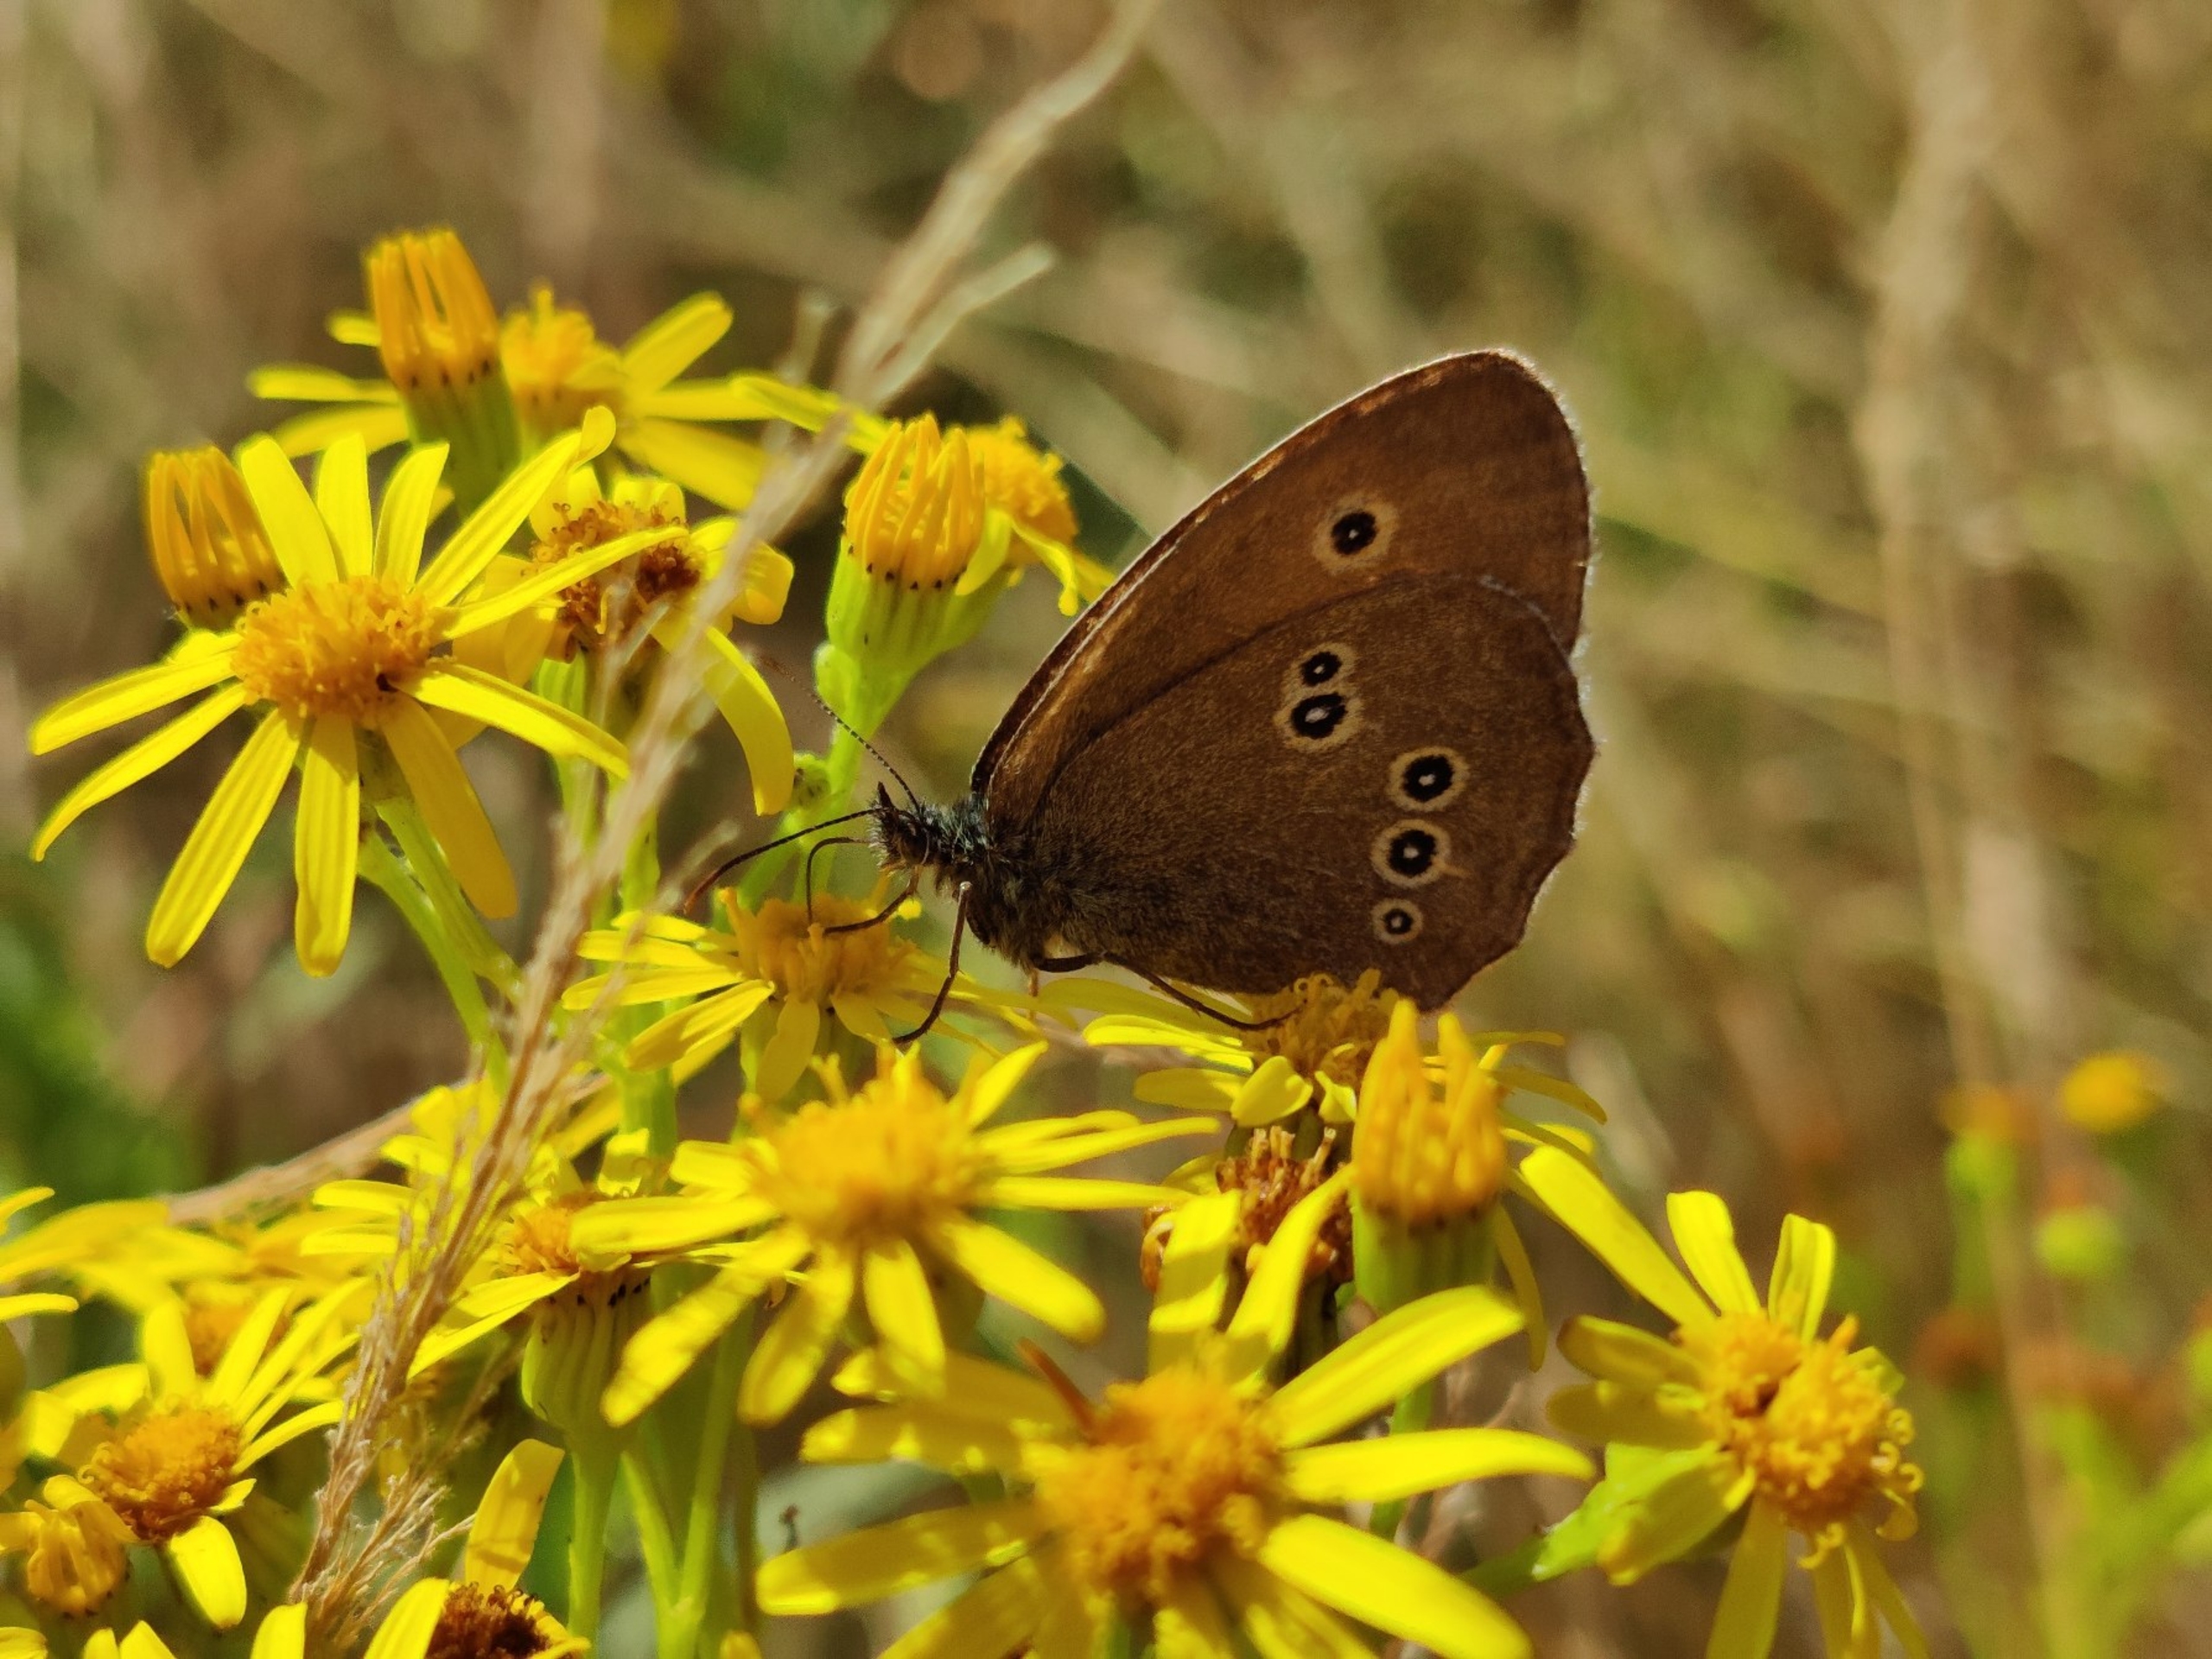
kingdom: Animalia
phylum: Arthropoda
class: Insecta
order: Lepidoptera
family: Nymphalidae
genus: Aphantopus
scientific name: Aphantopus hyperantus
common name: Engrandøje
